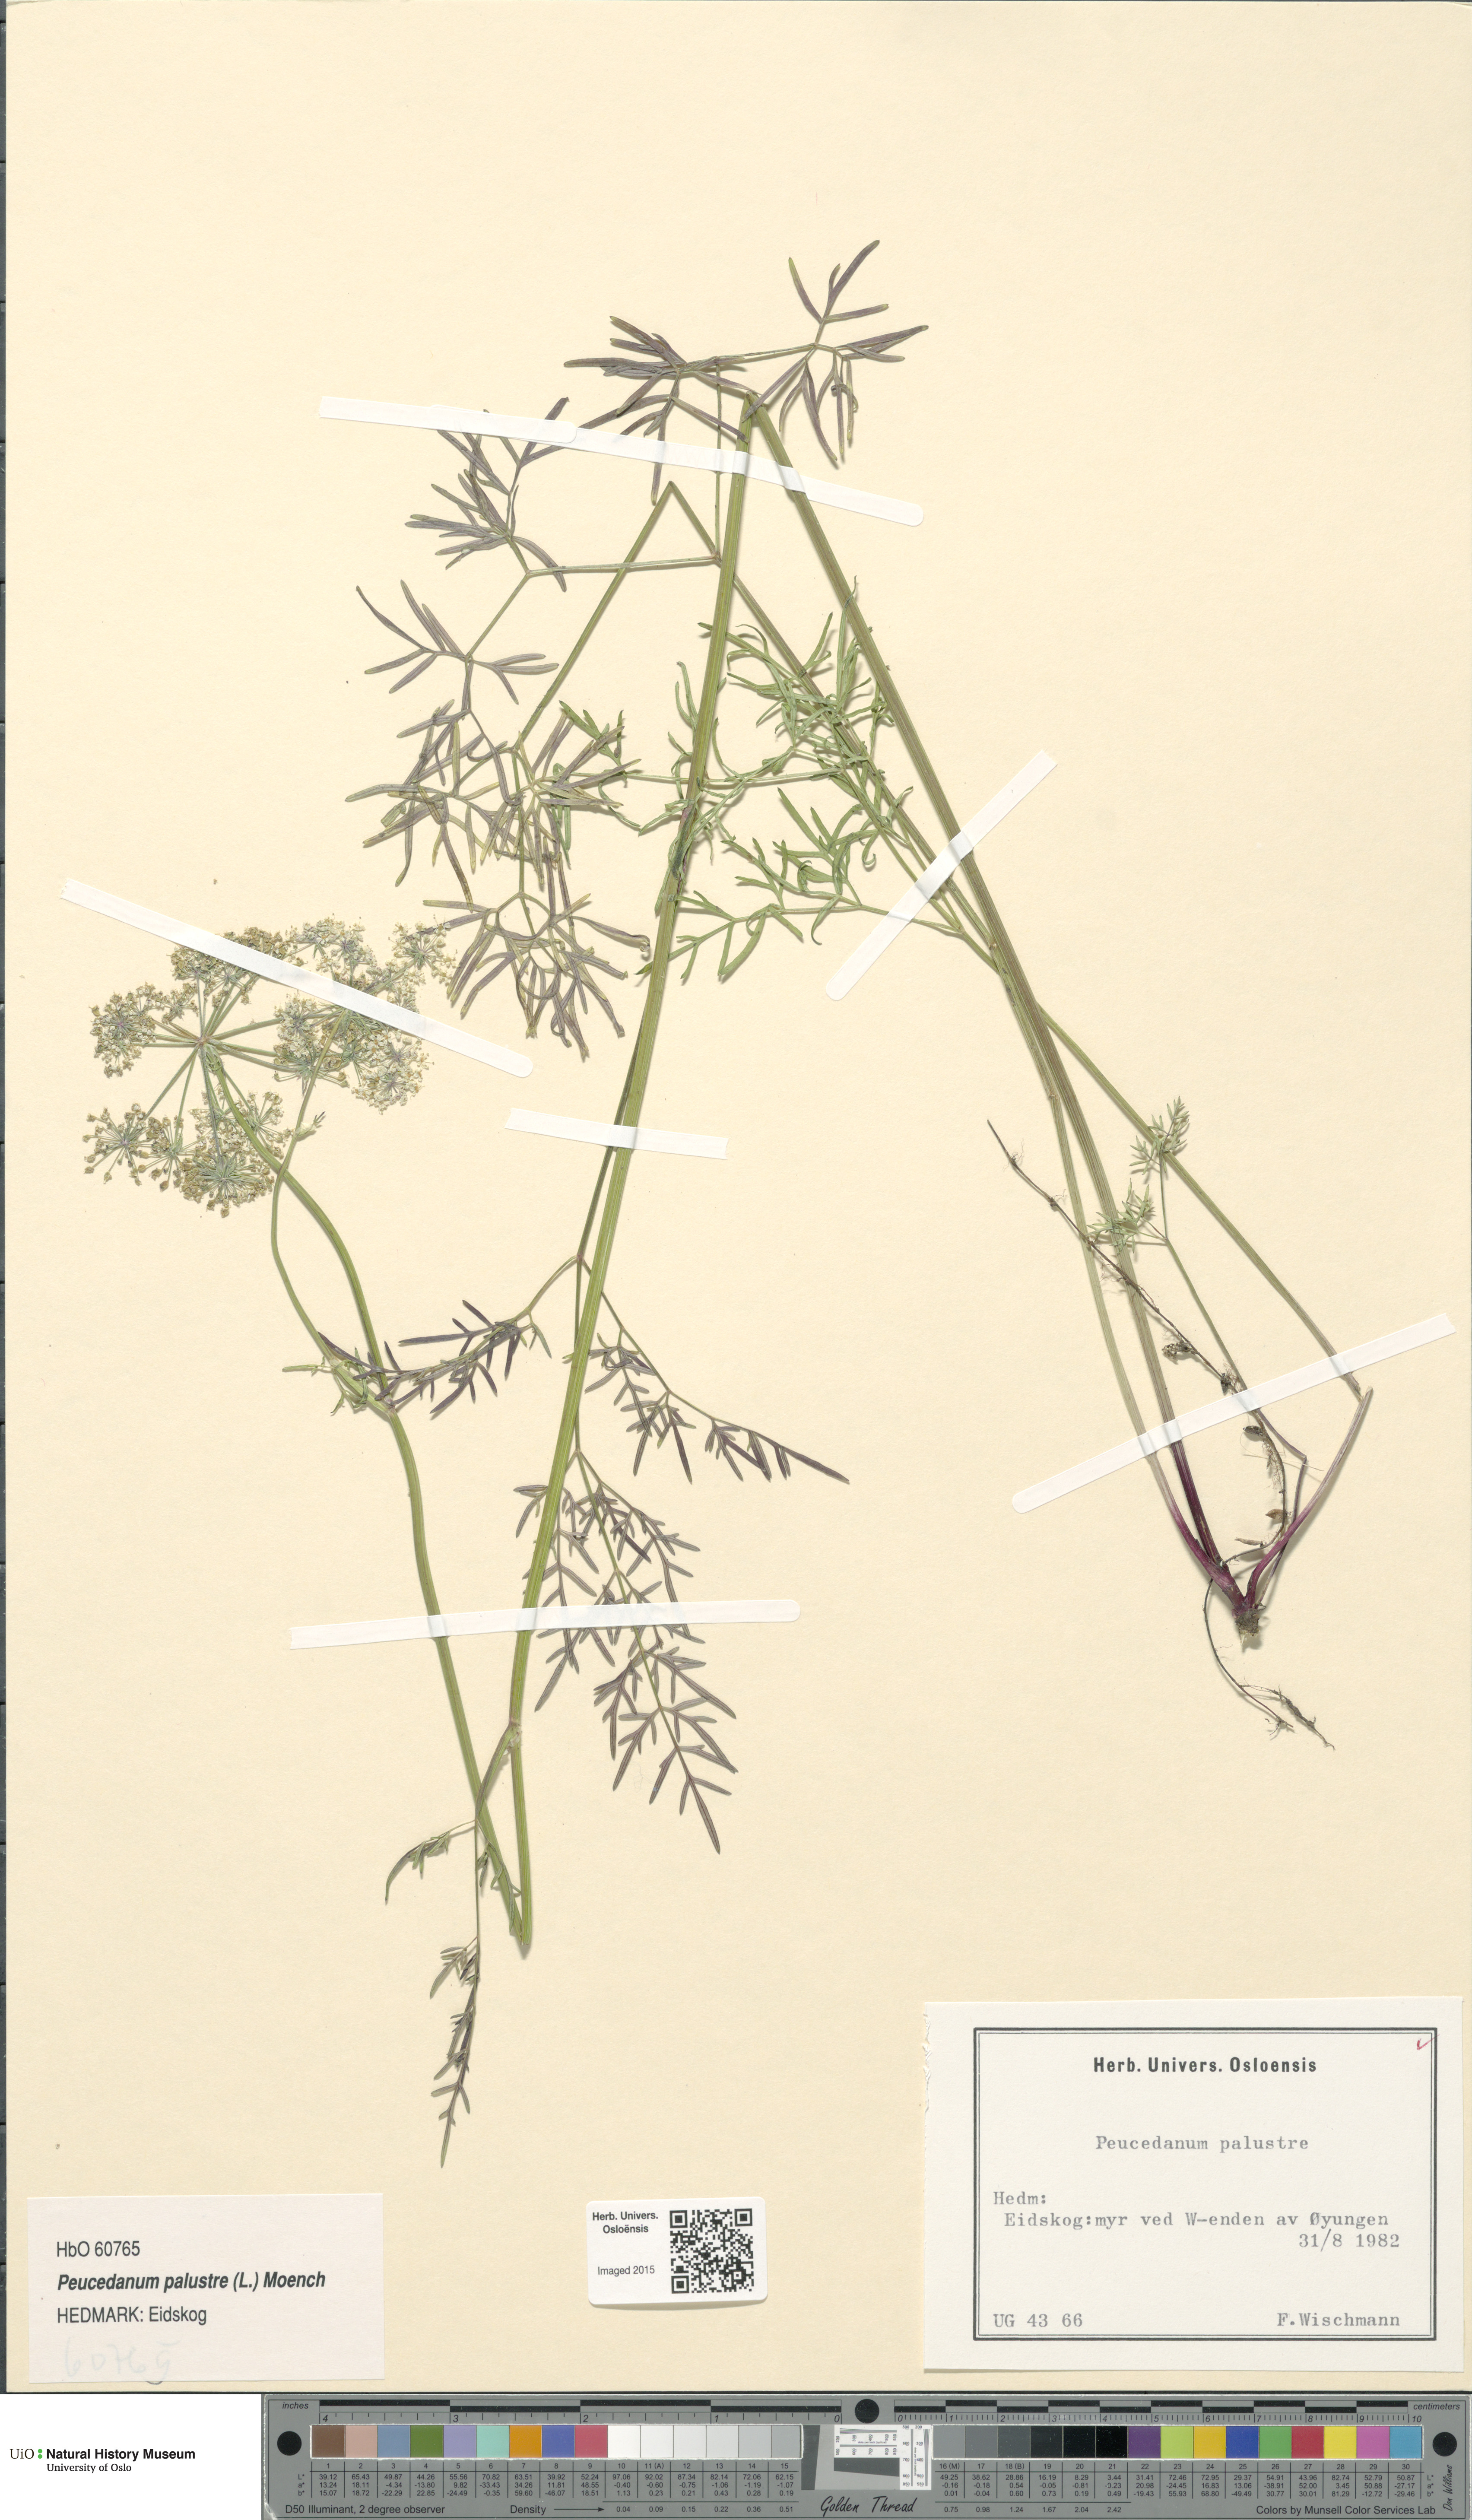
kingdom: Plantae
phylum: Tracheophyta
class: Magnoliopsida
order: Apiales
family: Apiaceae
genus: Thysselinum
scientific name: Thysselinum palustre
